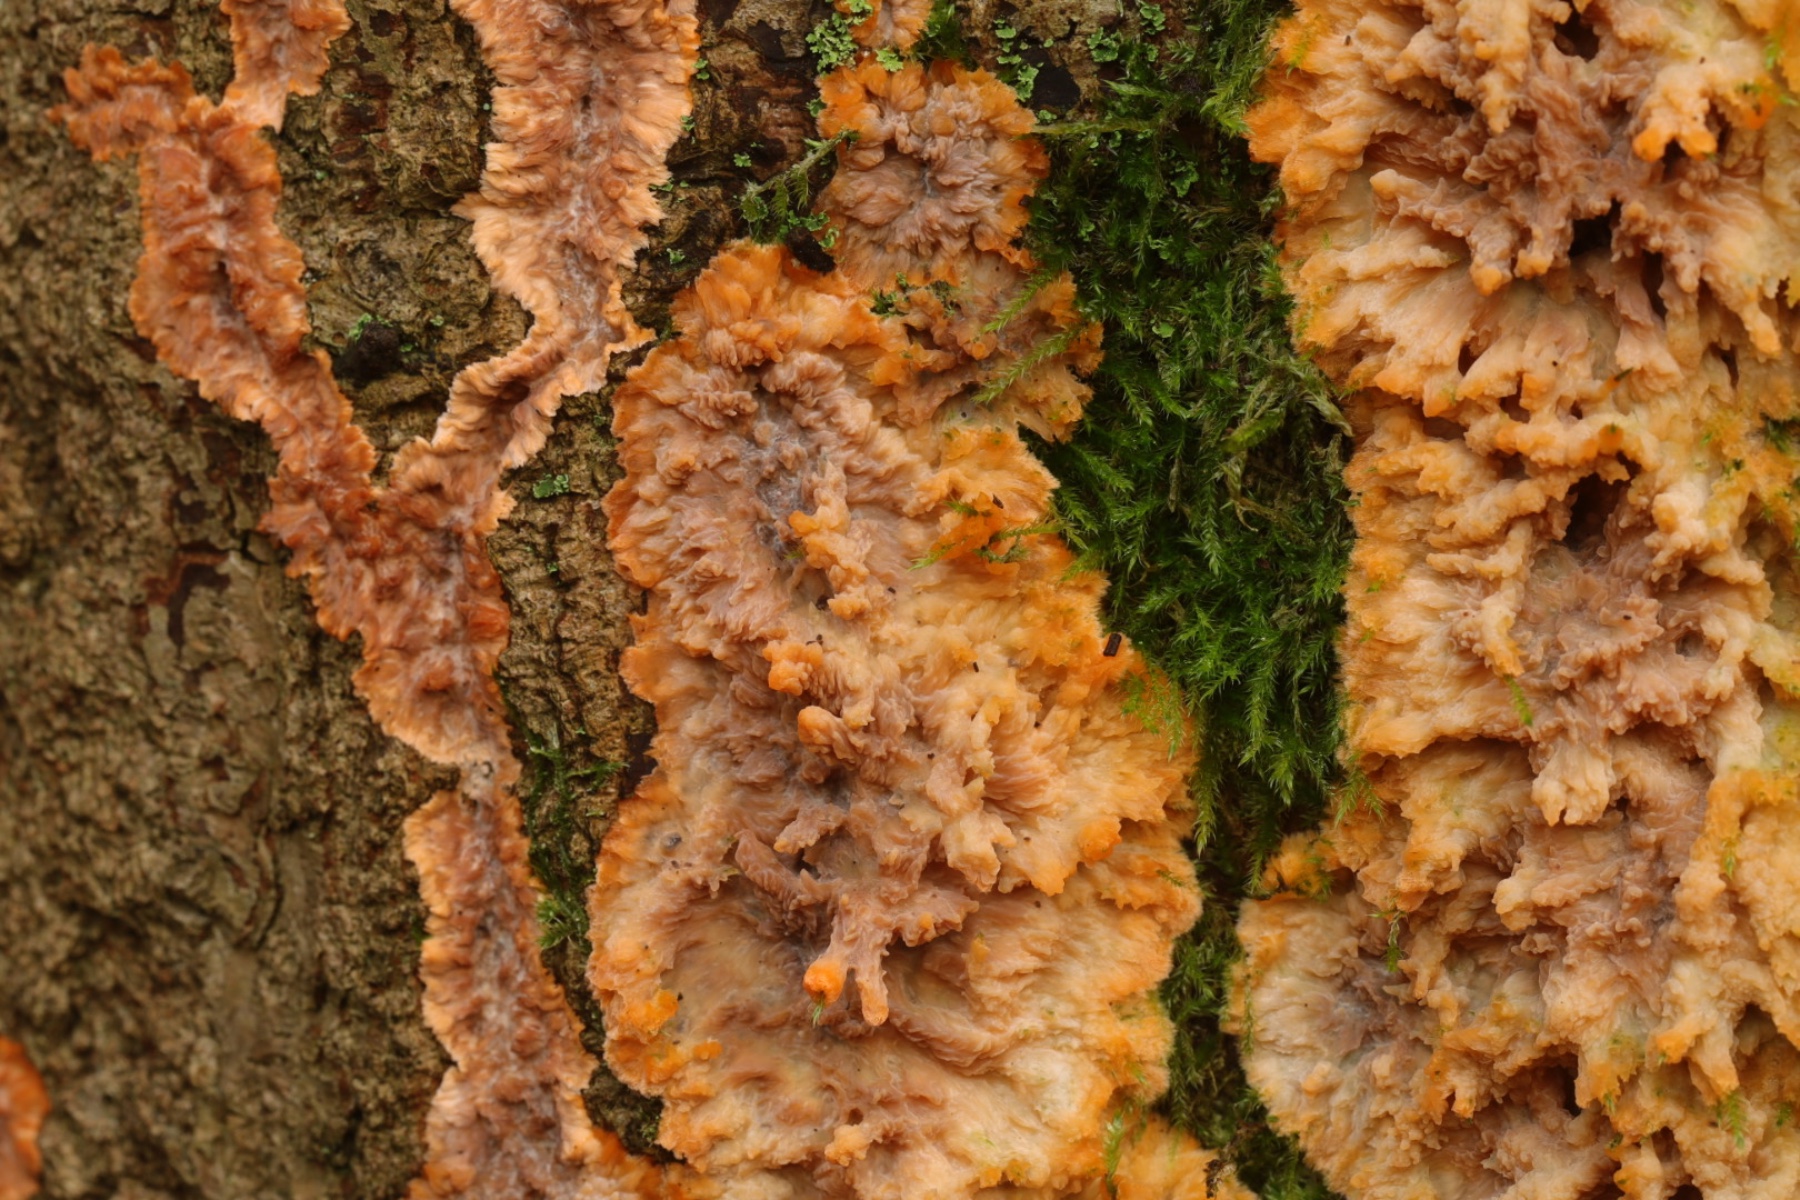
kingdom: Fungi
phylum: Basidiomycota
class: Agaricomycetes
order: Polyporales
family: Meruliaceae
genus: Phlebia
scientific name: Phlebia radiata
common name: stråle-åresvamp
